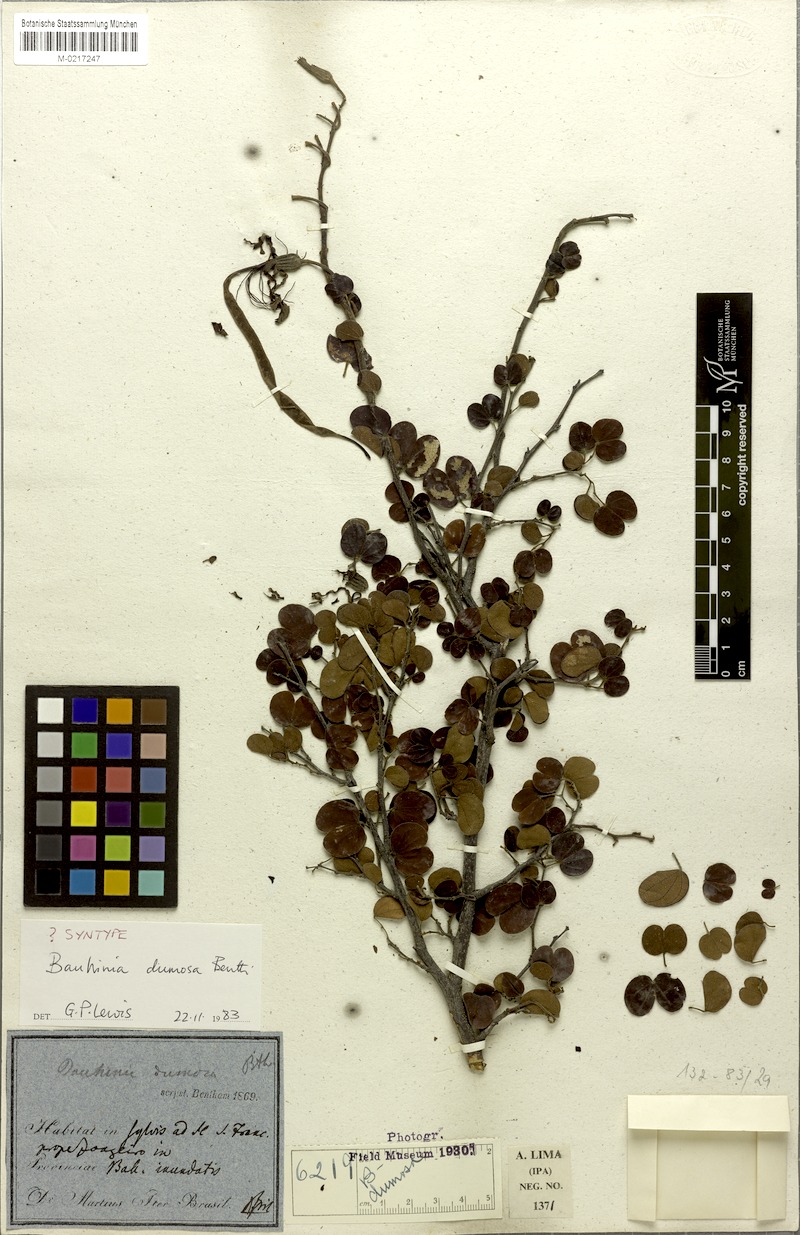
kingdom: Plantae
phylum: Tracheophyta
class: Magnoliopsida
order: Fabales
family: Fabaceae
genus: Bauhinia
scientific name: Bauhinia dumosa
